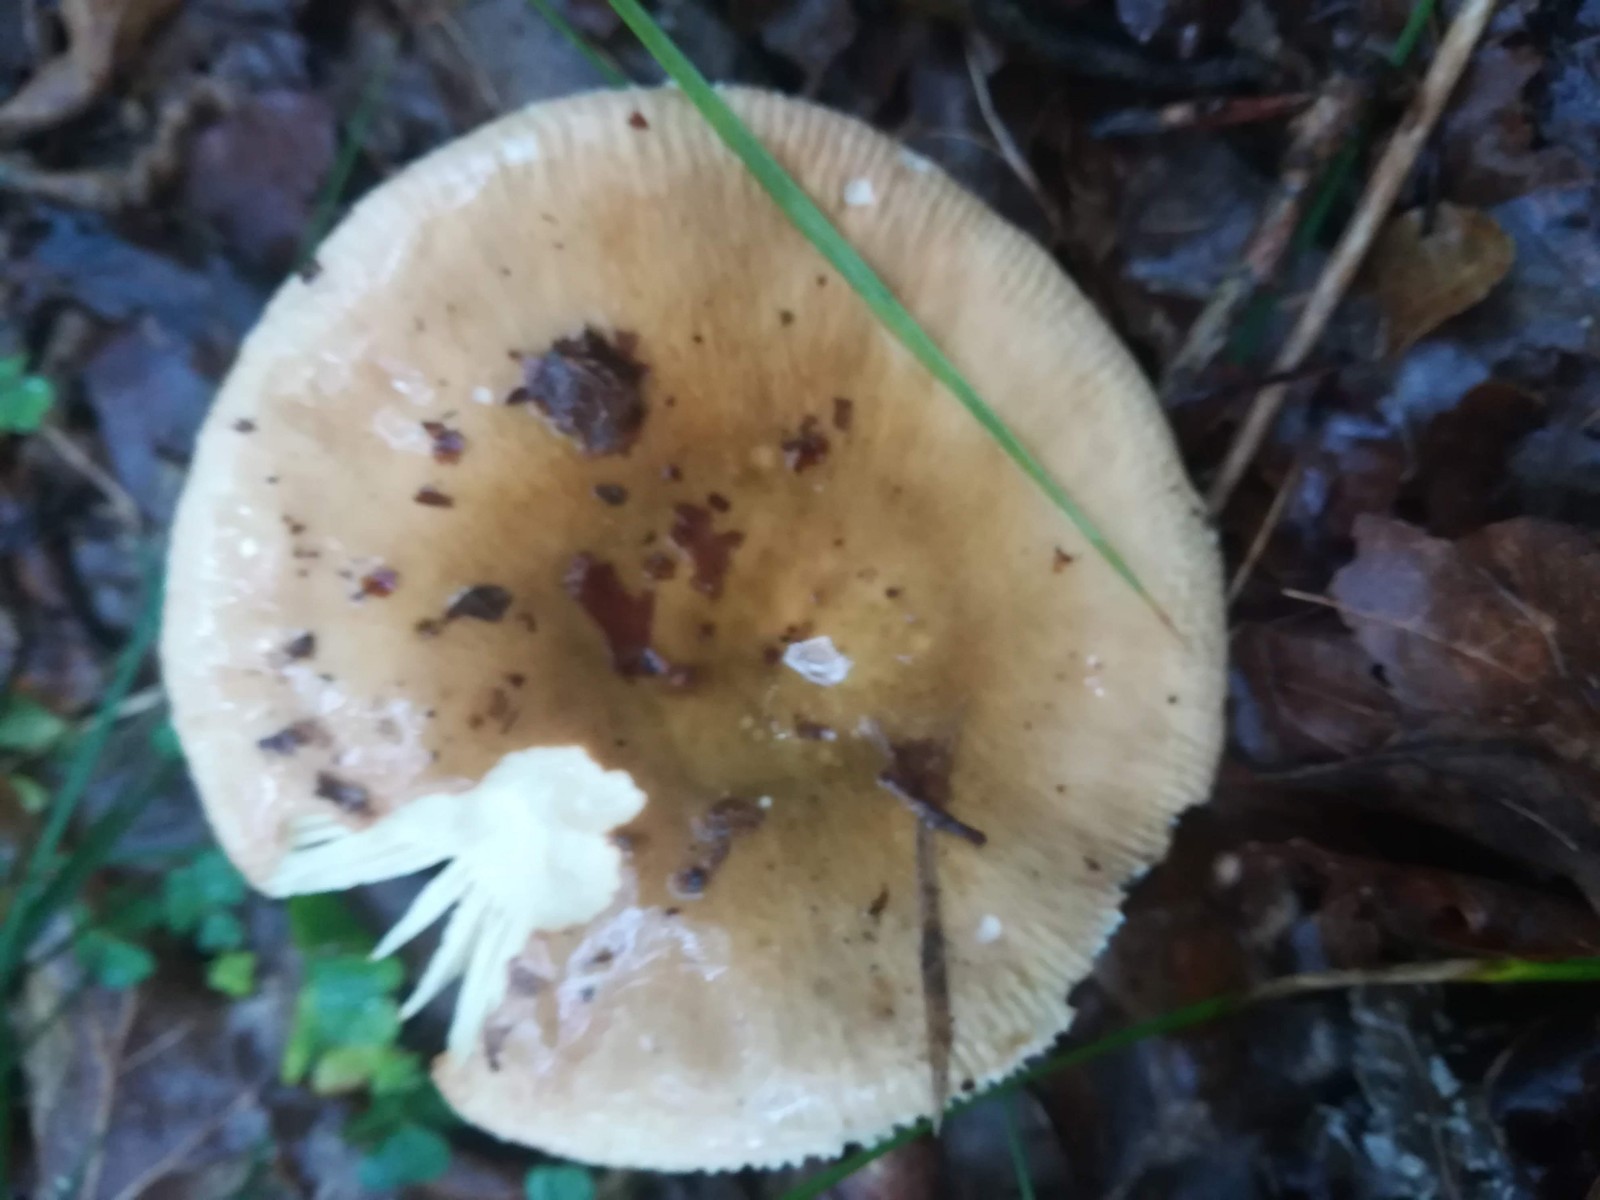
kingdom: Fungi
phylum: Basidiomycota
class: Agaricomycetes
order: Russulales
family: Russulaceae
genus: Russula
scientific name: Russula recondita
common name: mild kam-skørhat
